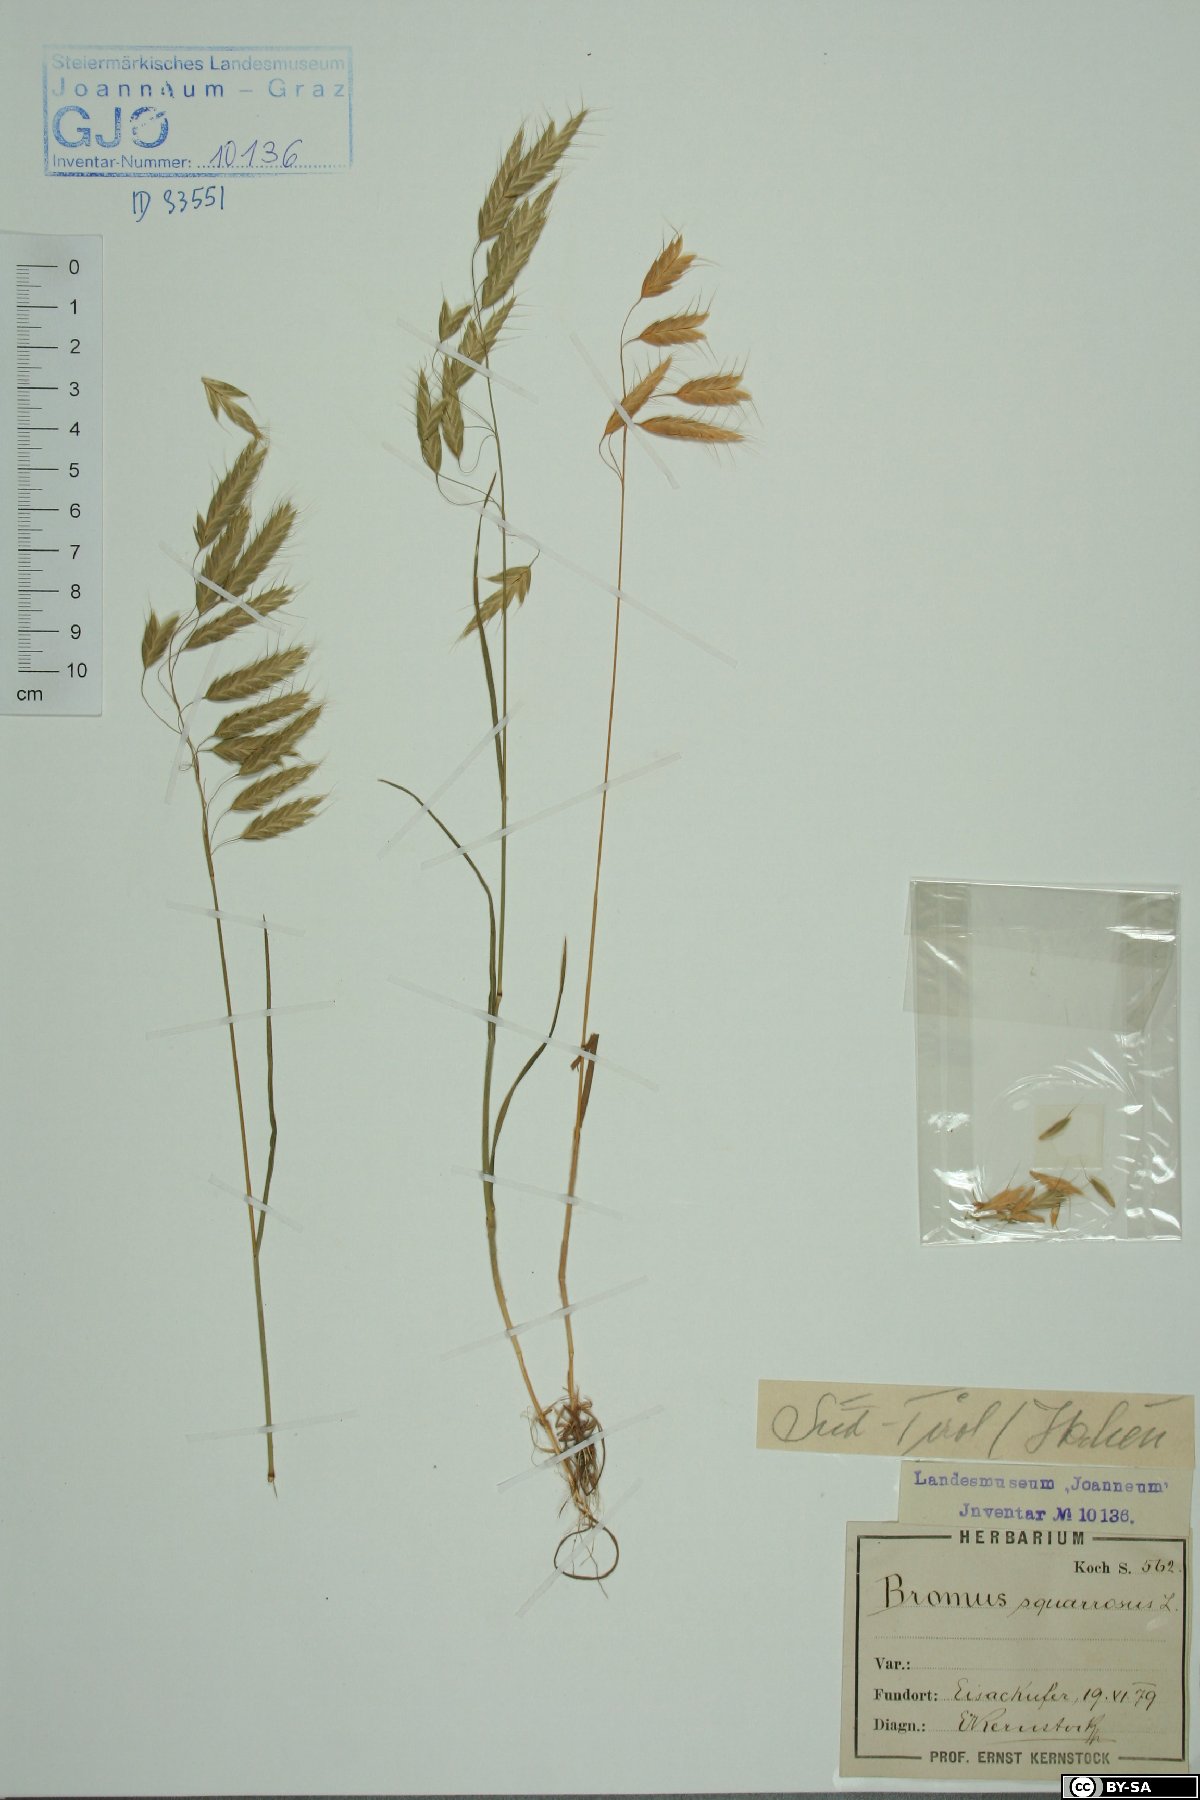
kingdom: Plantae
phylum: Tracheophyta
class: Liliopsida
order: Poales
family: Poaceae
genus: Bromus
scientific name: Bromus squarrosus
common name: Corn brome
